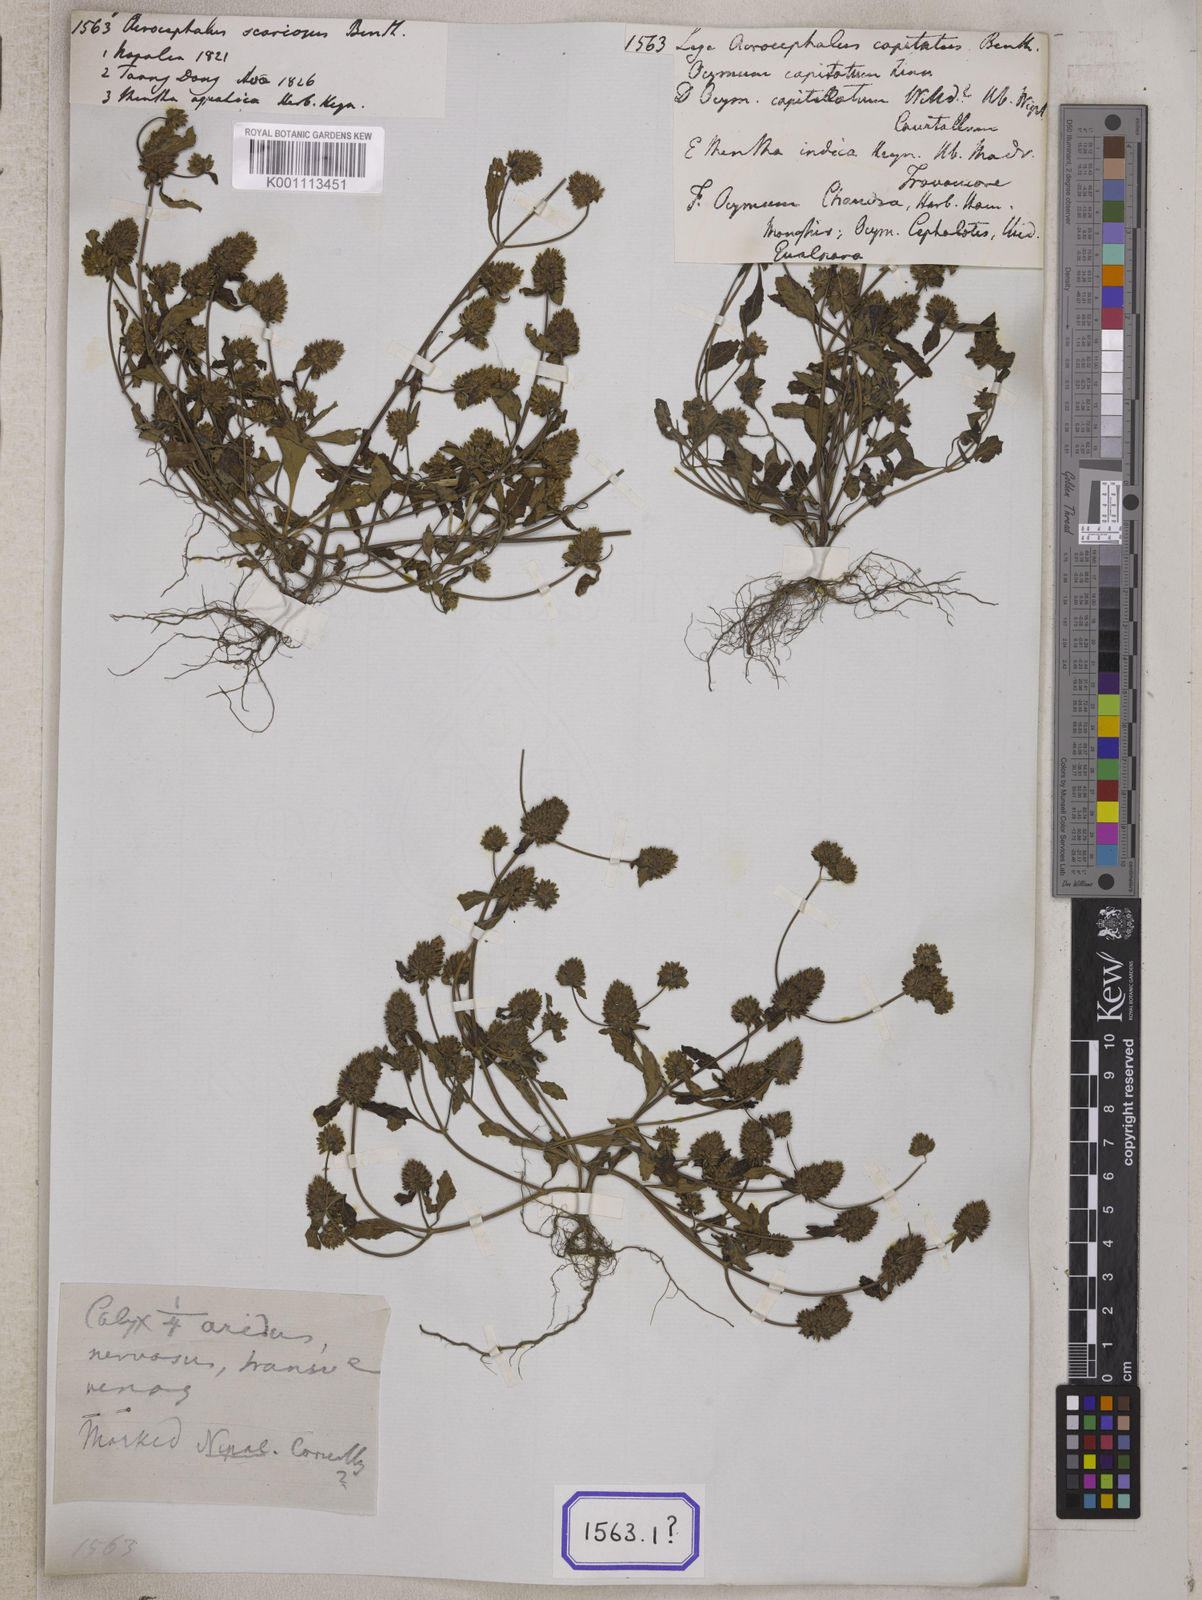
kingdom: Plantae
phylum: Tracheophyta
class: Magnoliopsida
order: Lamiales
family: Lamiaceae
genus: Platostoma
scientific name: Platostoma hispidum
